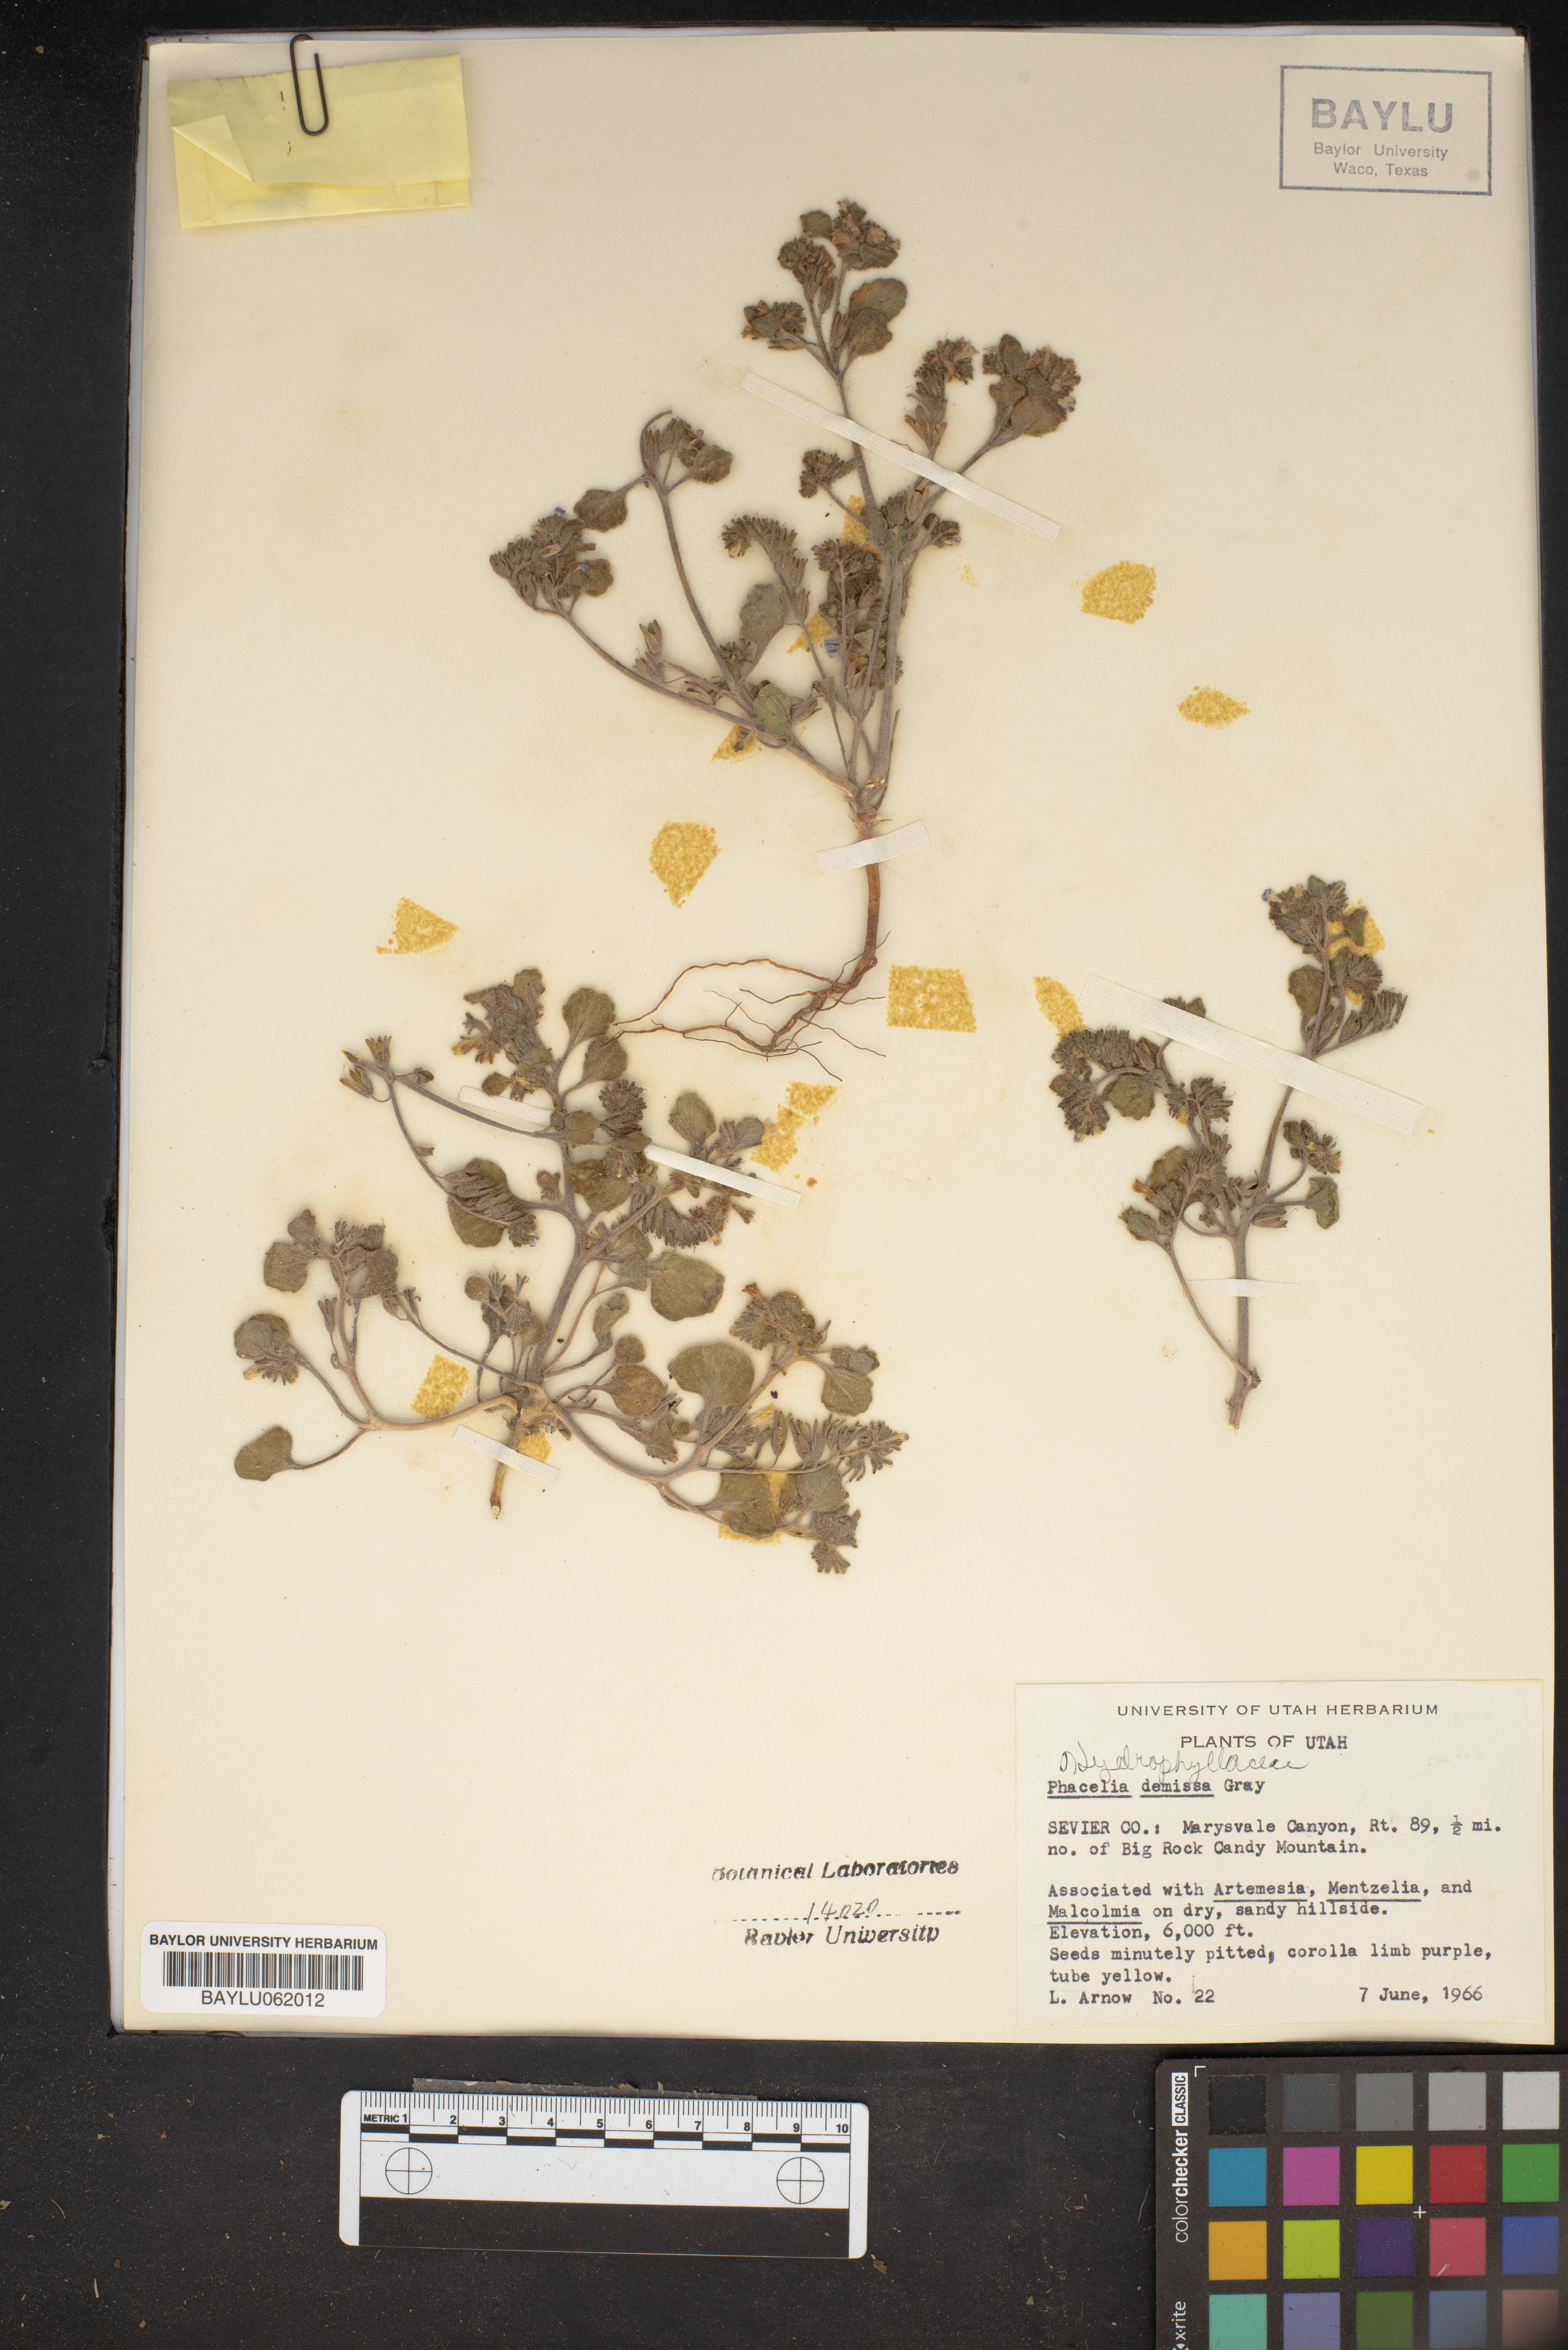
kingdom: Plantae
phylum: Tracheophyta
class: Magnoliopsida
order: Boraginales
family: Hydrophyllaceae
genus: Phacelia
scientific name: Phacelia demissa
